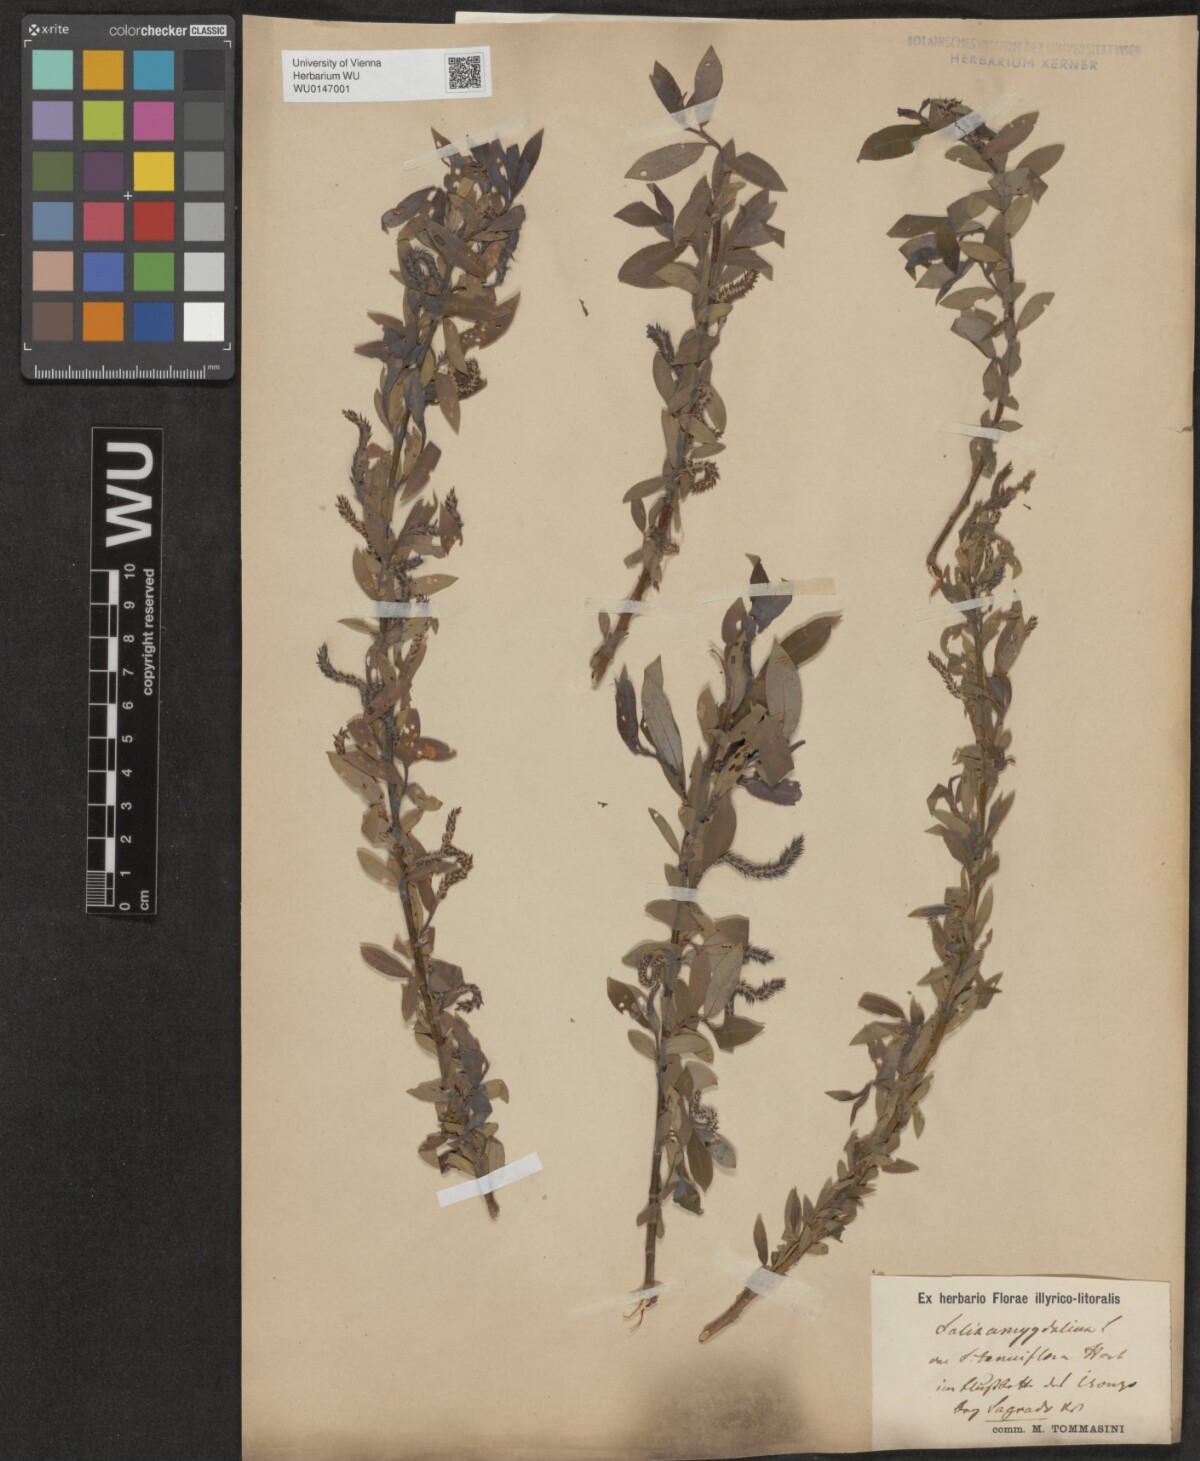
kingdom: Plantae
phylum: Tracheophyta
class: Magnoliopsida
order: Malpighiales
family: Salicaceae
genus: Salix
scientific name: Salix triandra
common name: Almond willow
